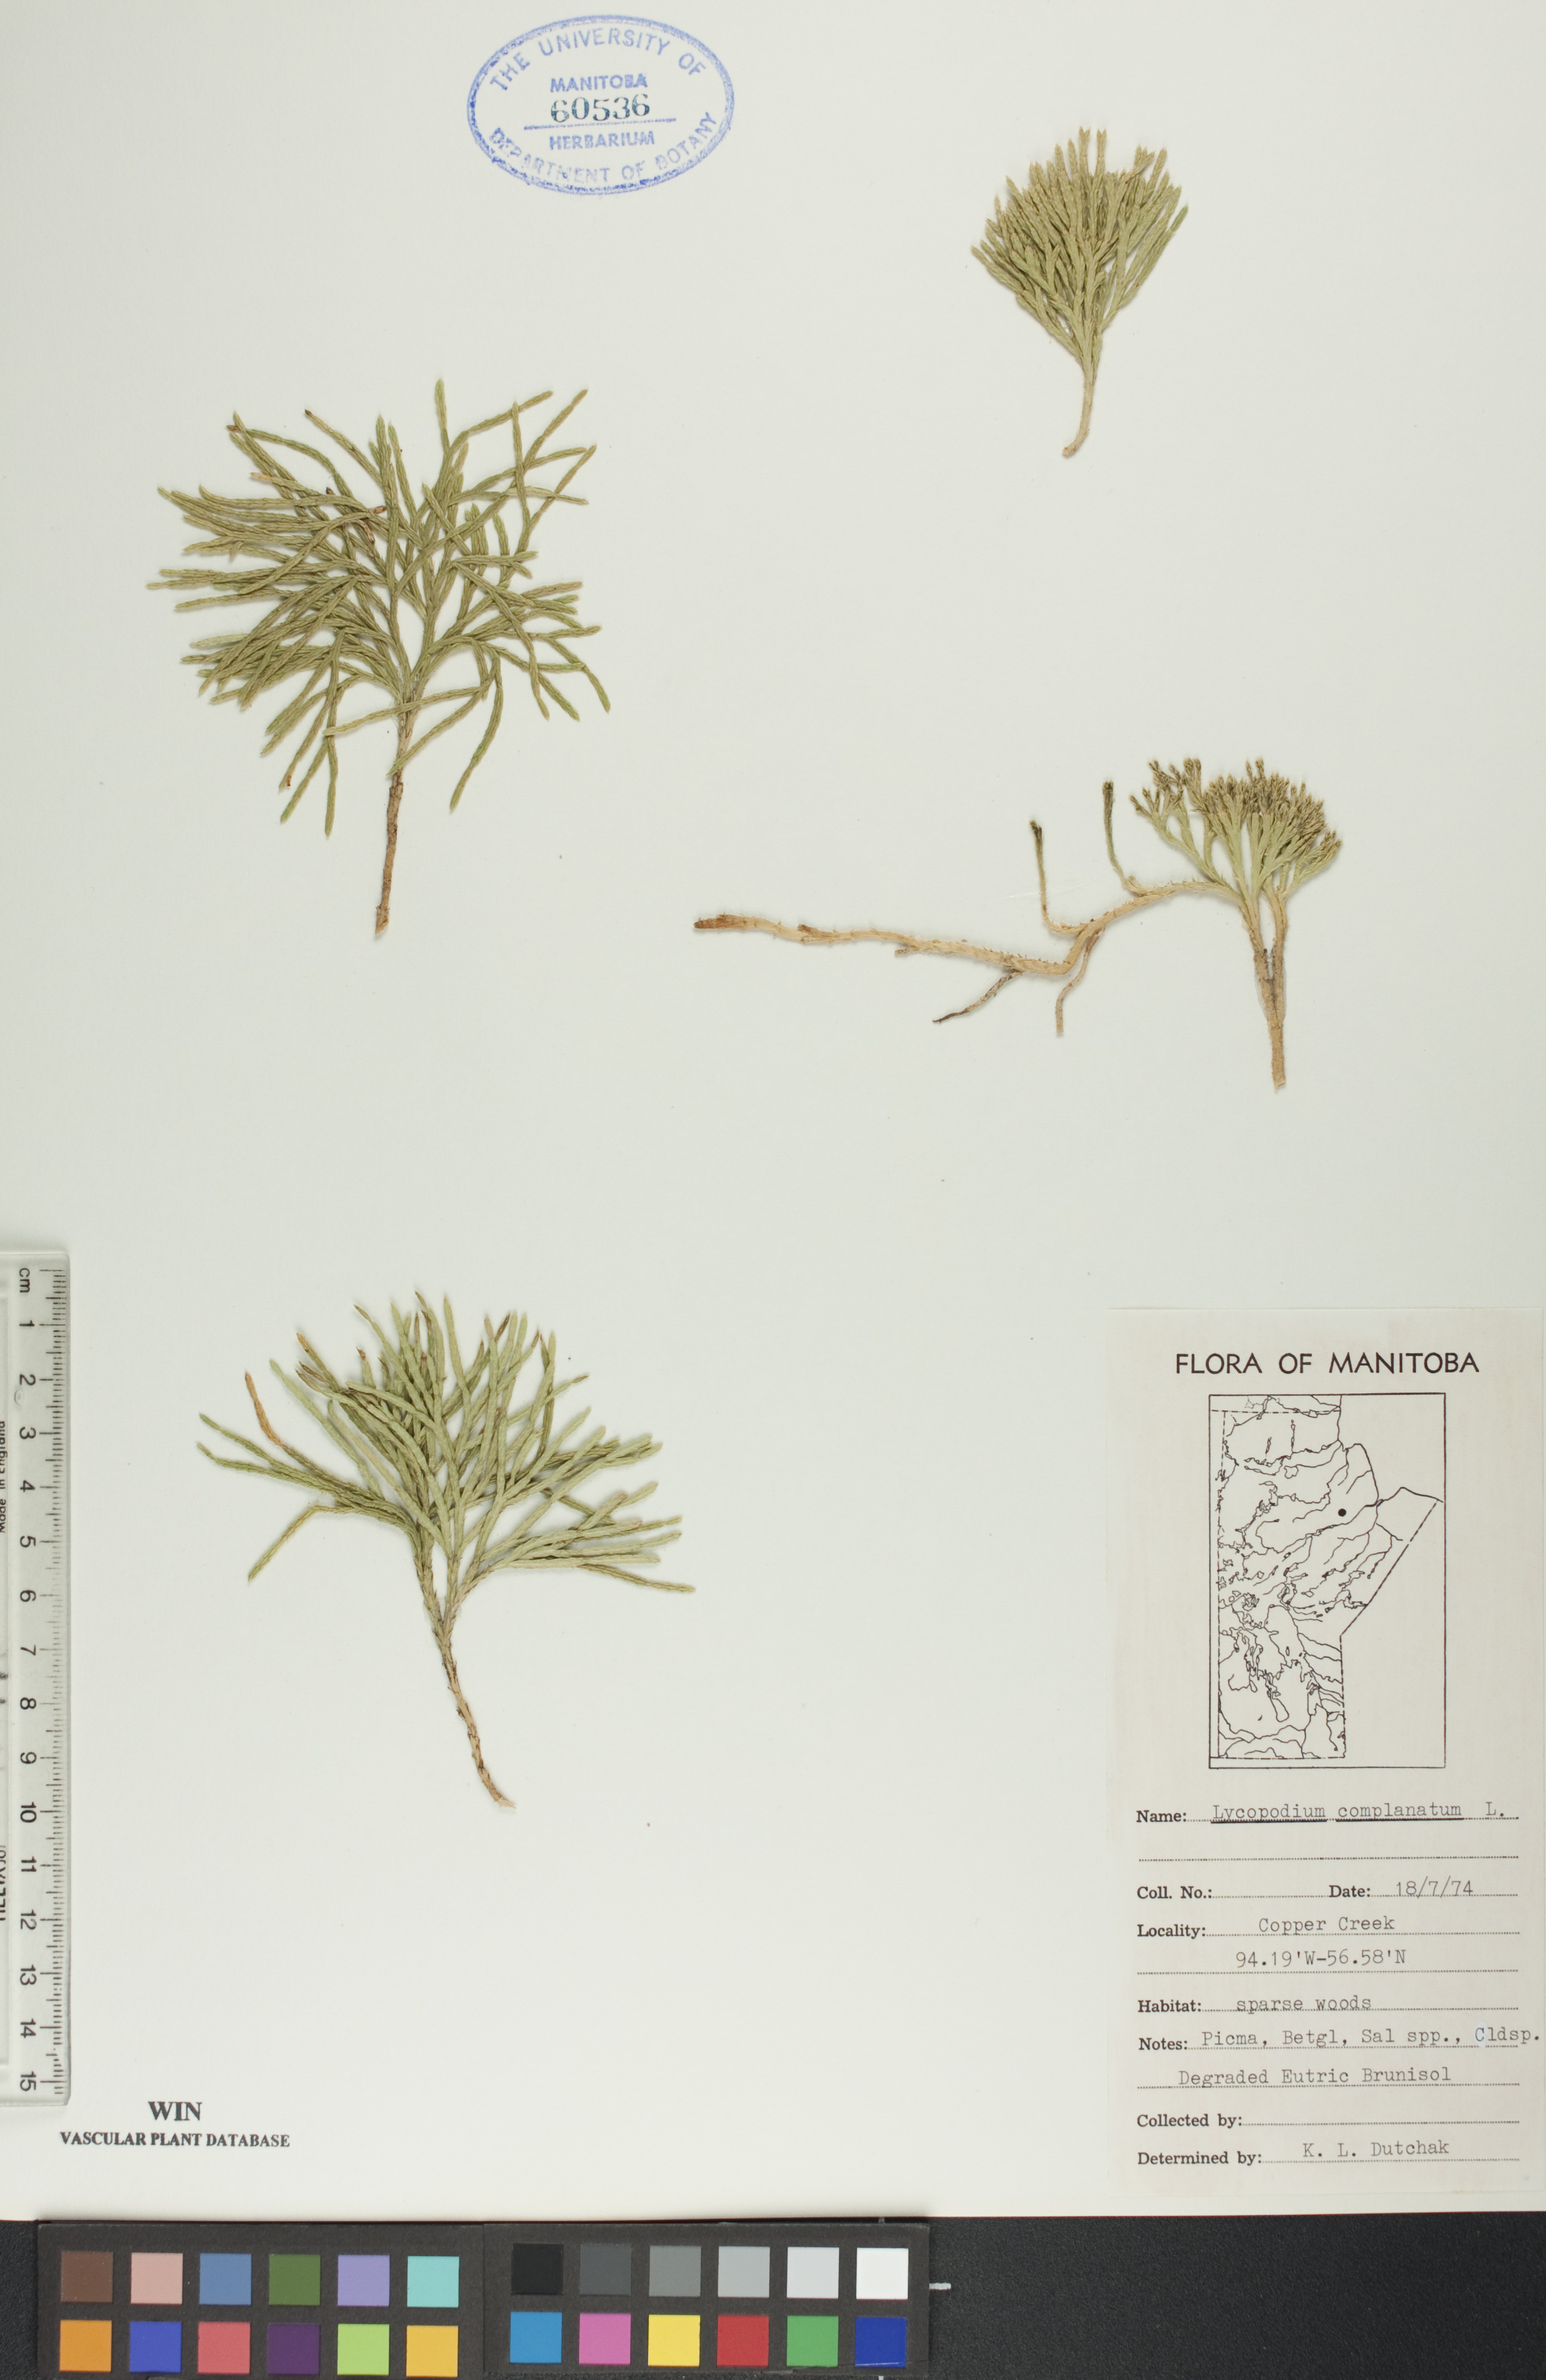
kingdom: Plantae
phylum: Tracheophyta
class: Lycopodiopsida
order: Lycopodiales
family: Lycopodiaceae
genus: Diphasiastrum
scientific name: Diphasiastrum
